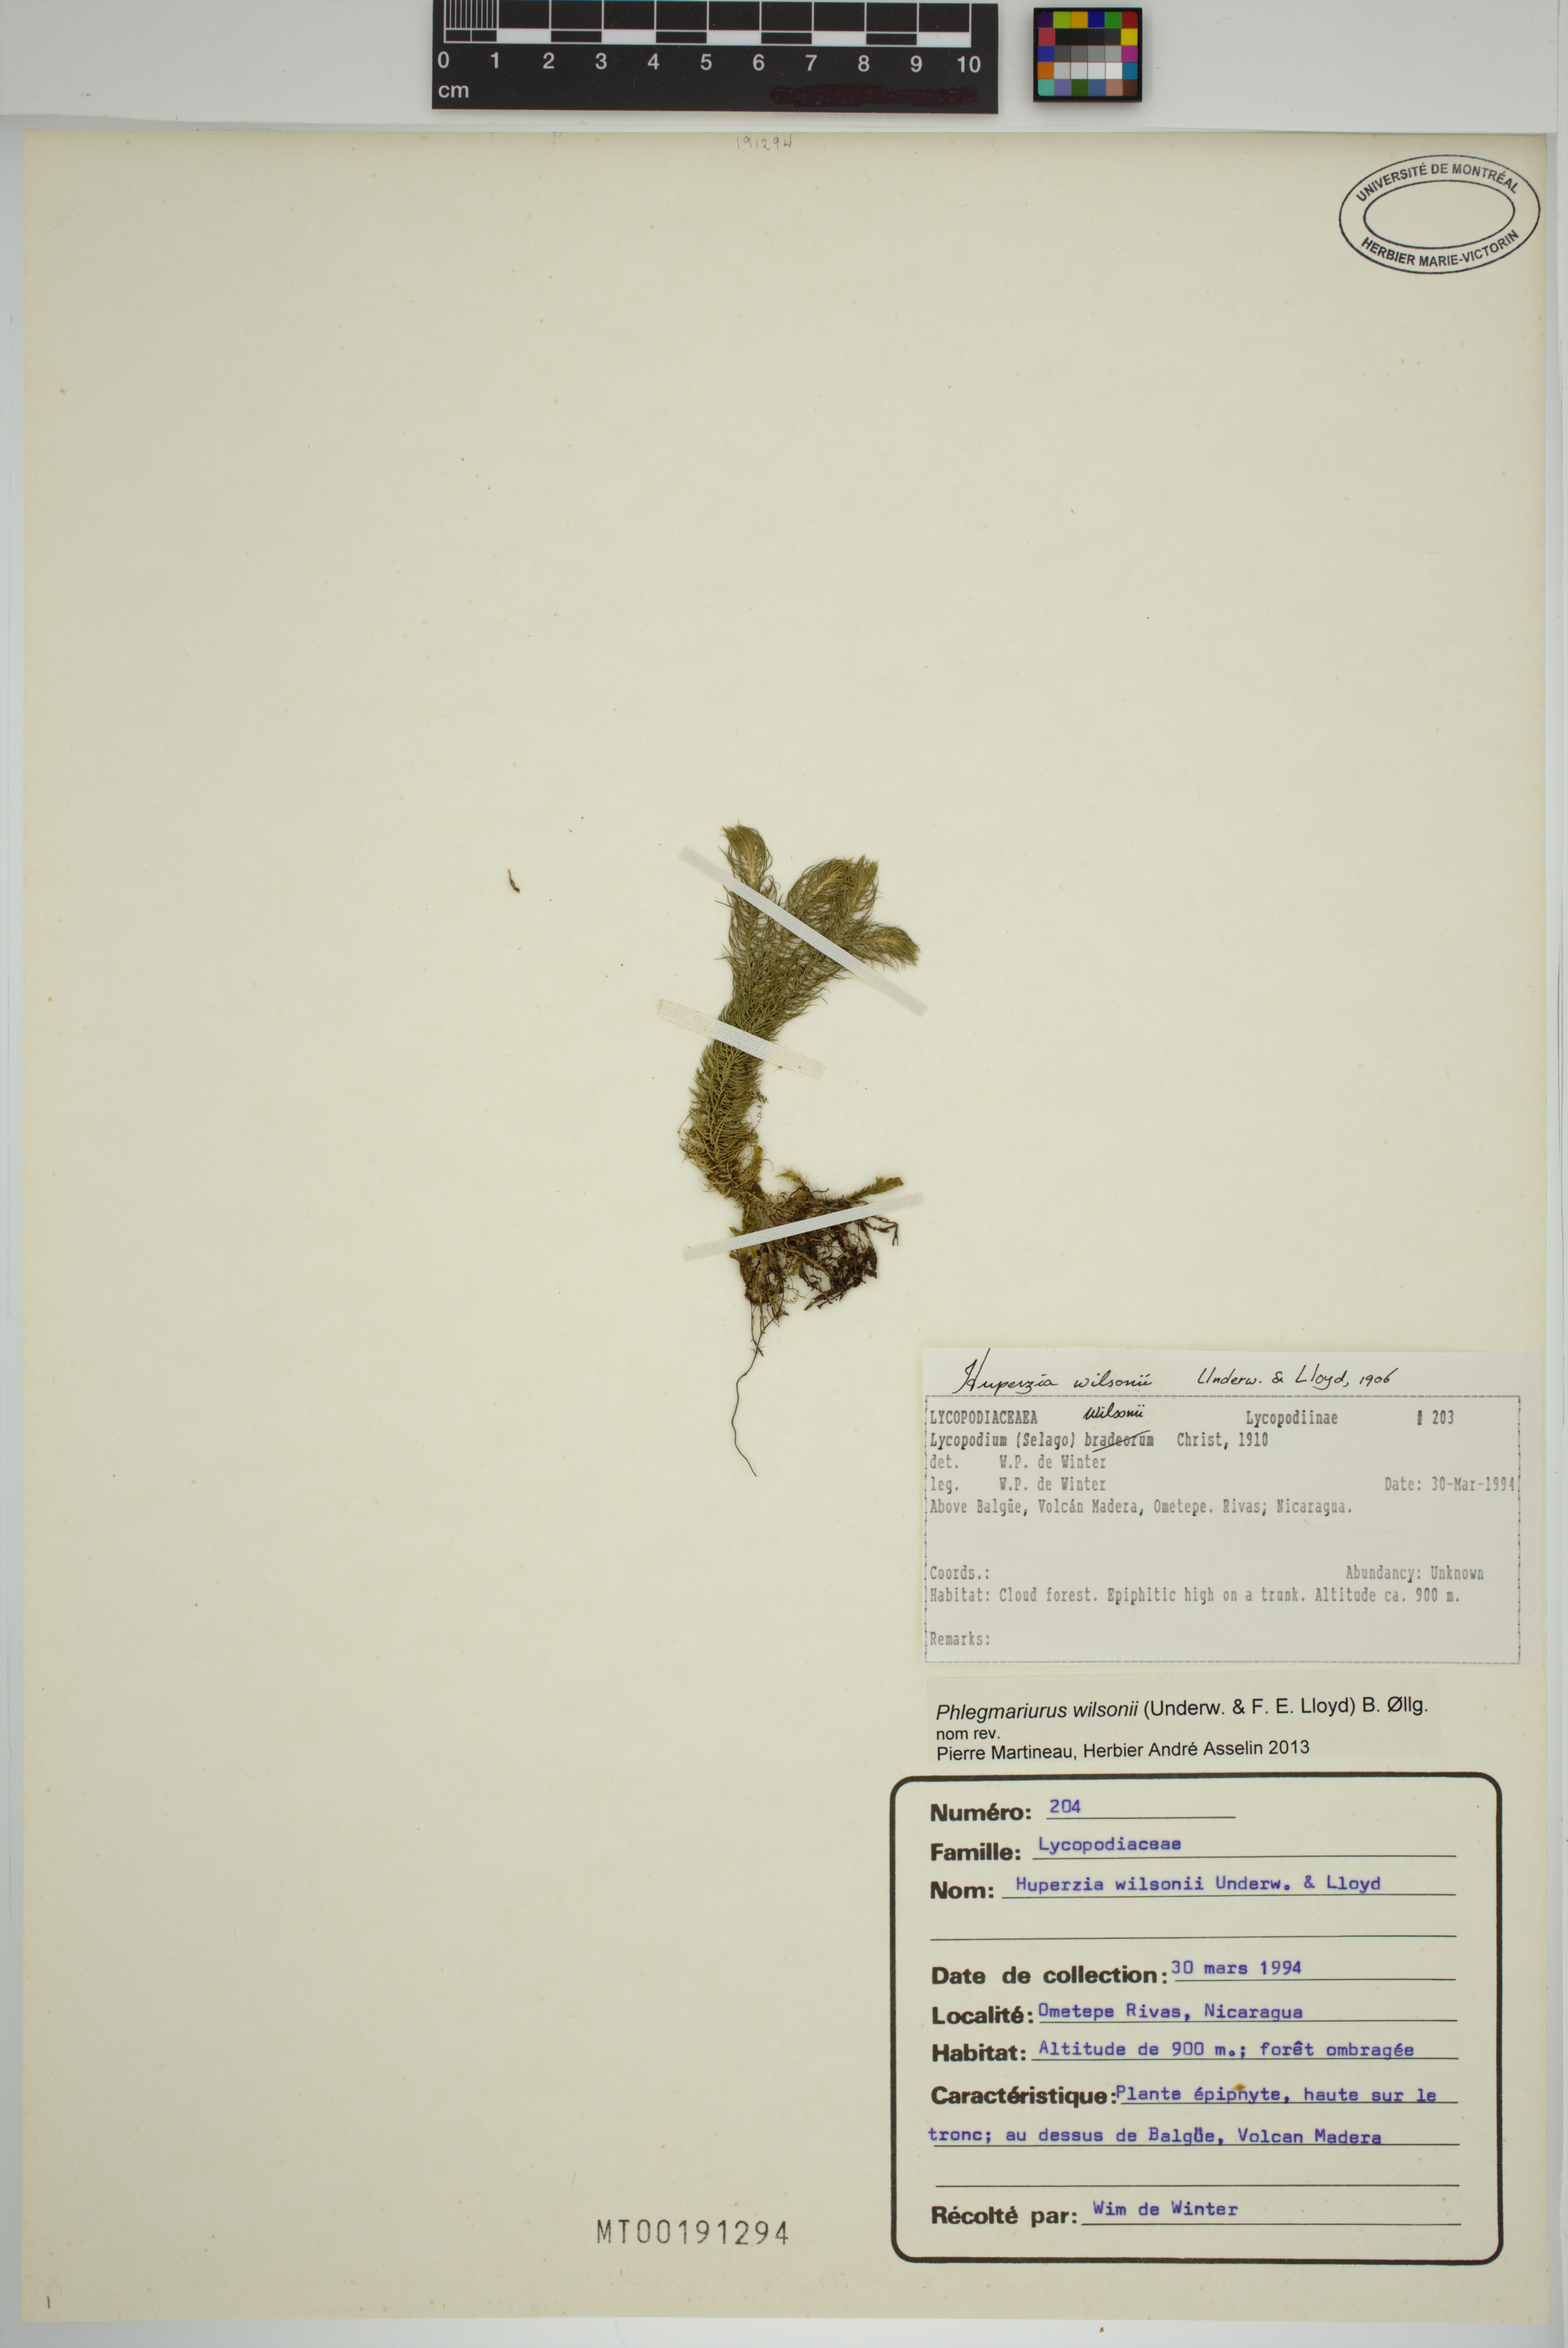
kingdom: Plantae
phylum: Tracheophyta
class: Lycopodiopsida
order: Lycopodiales
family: Lycopodiaceae
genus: Phlegmariurus
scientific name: Phlegmariurus wilsonii
